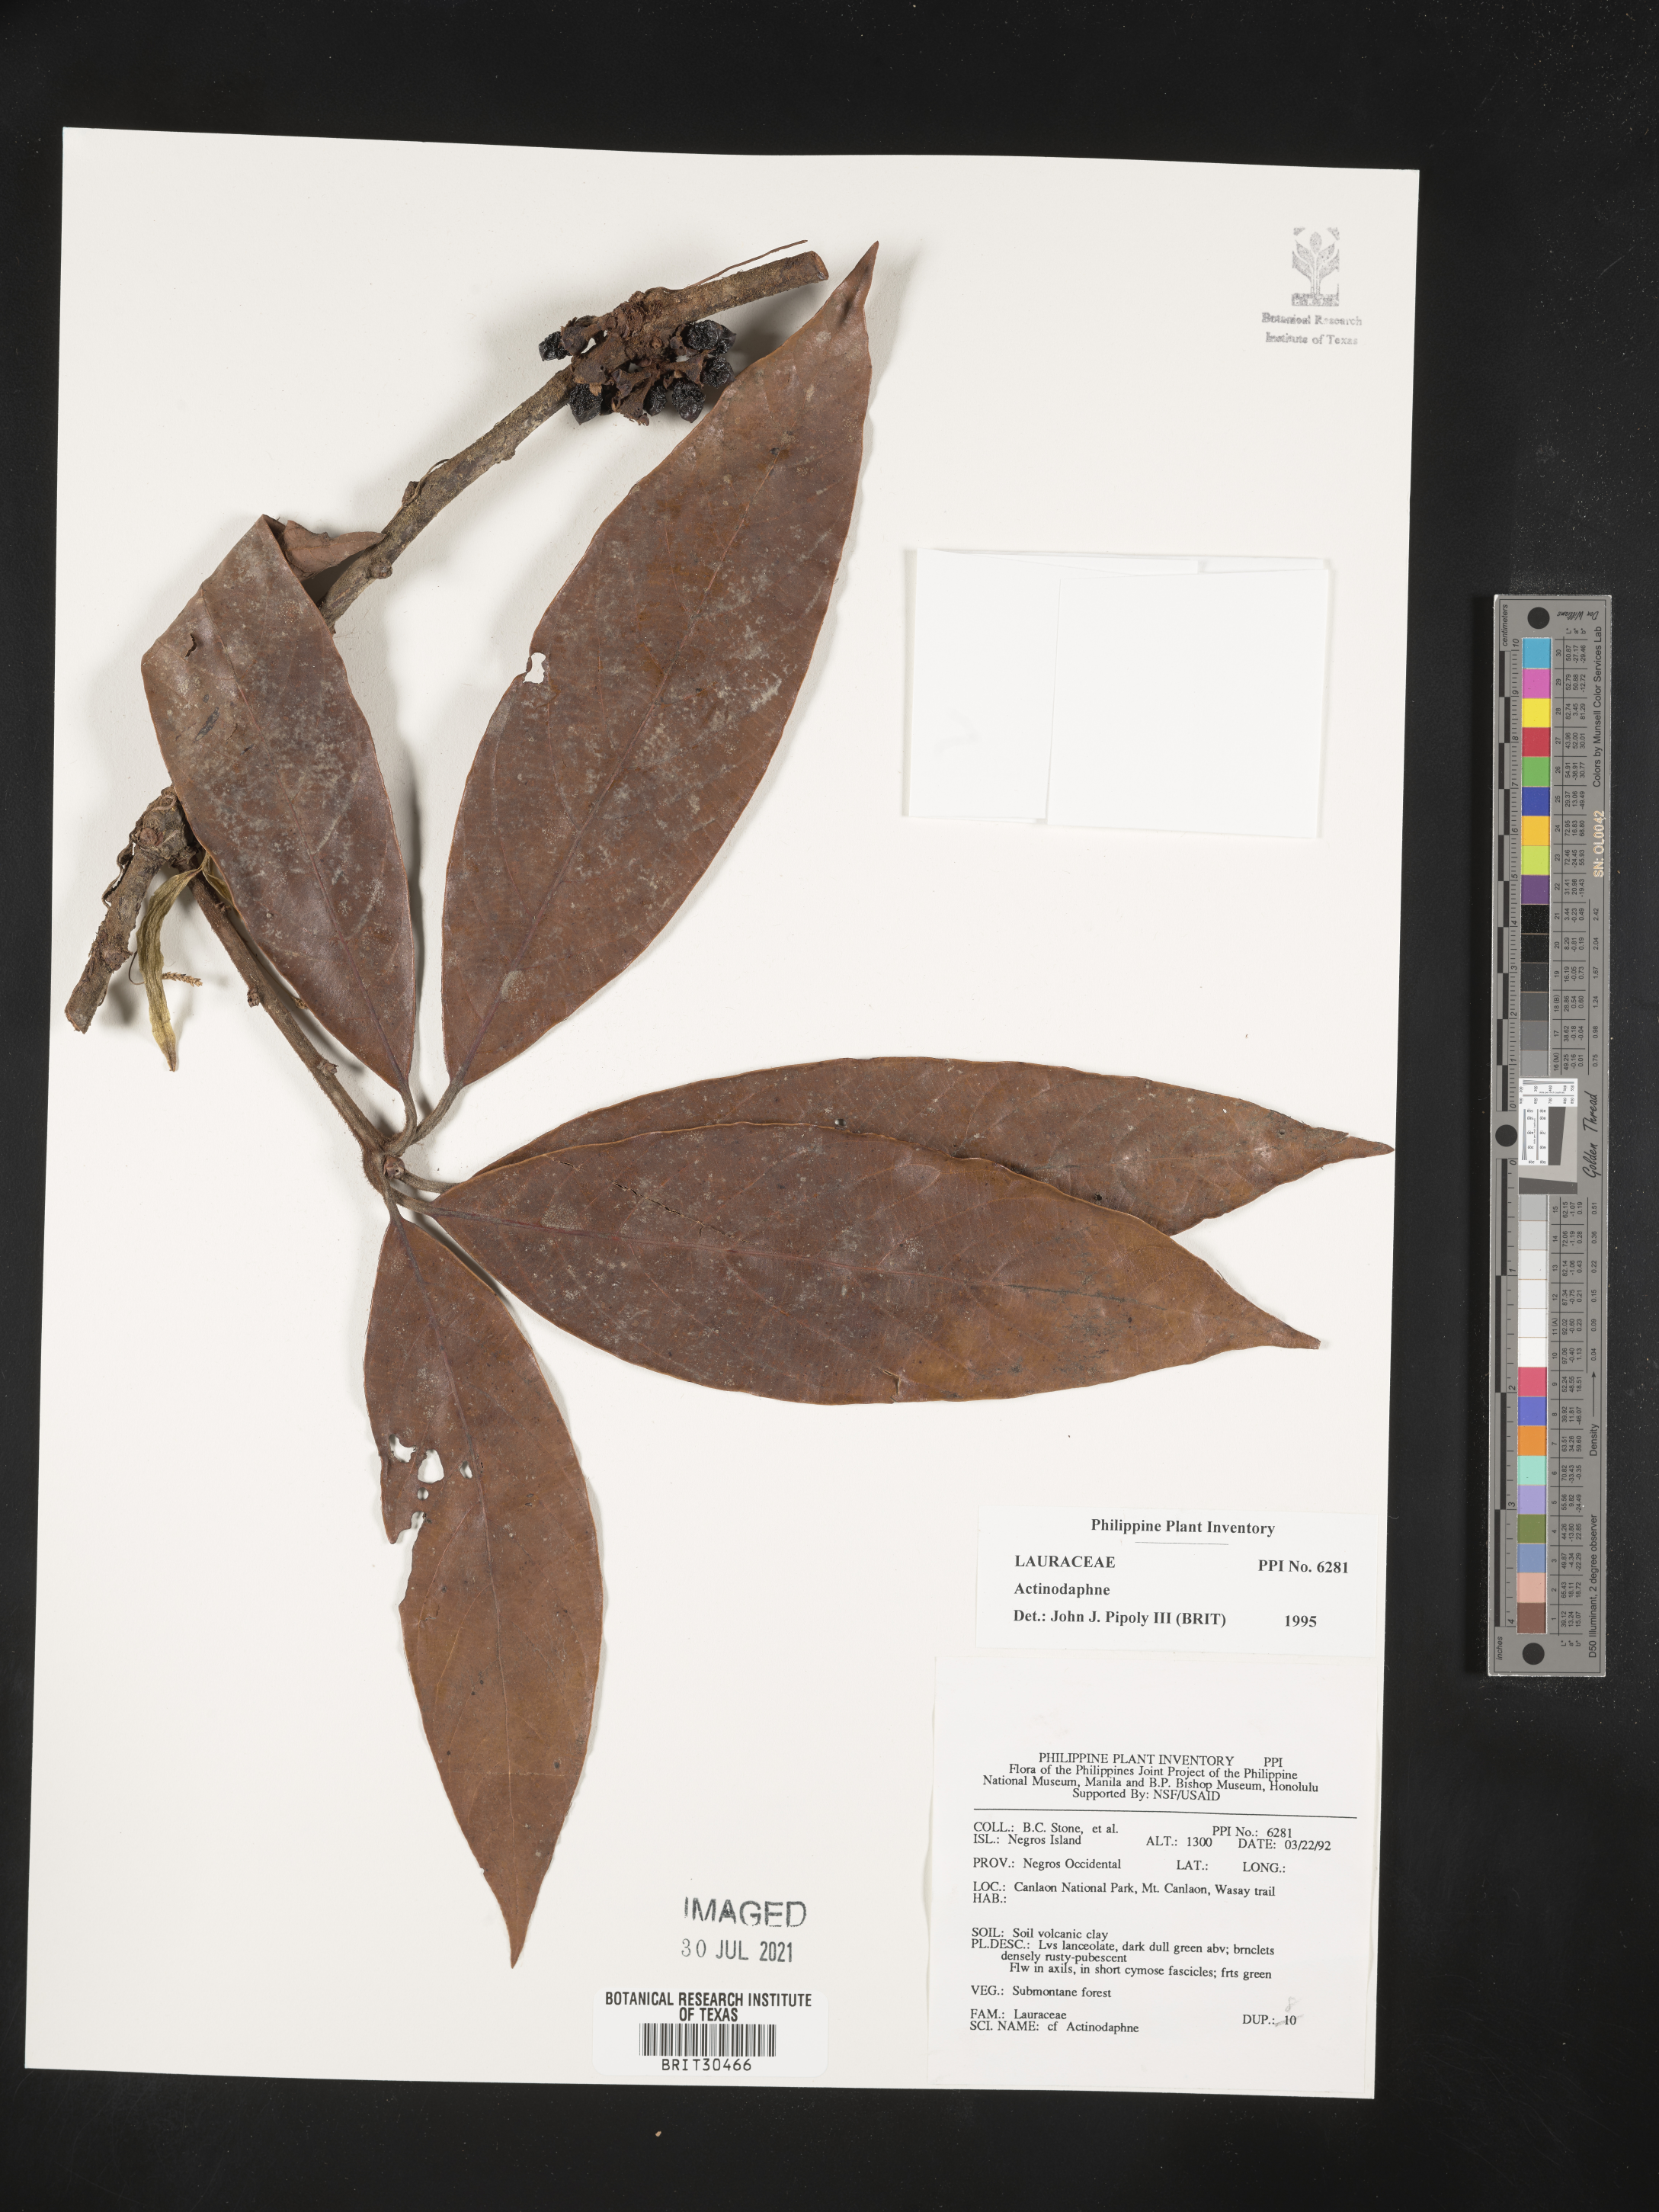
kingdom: Plantae
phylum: Tracheophyta
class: Magnoliopsida
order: Laurales
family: Lauraceae
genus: Actinodaphne
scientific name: Actinodaphne
